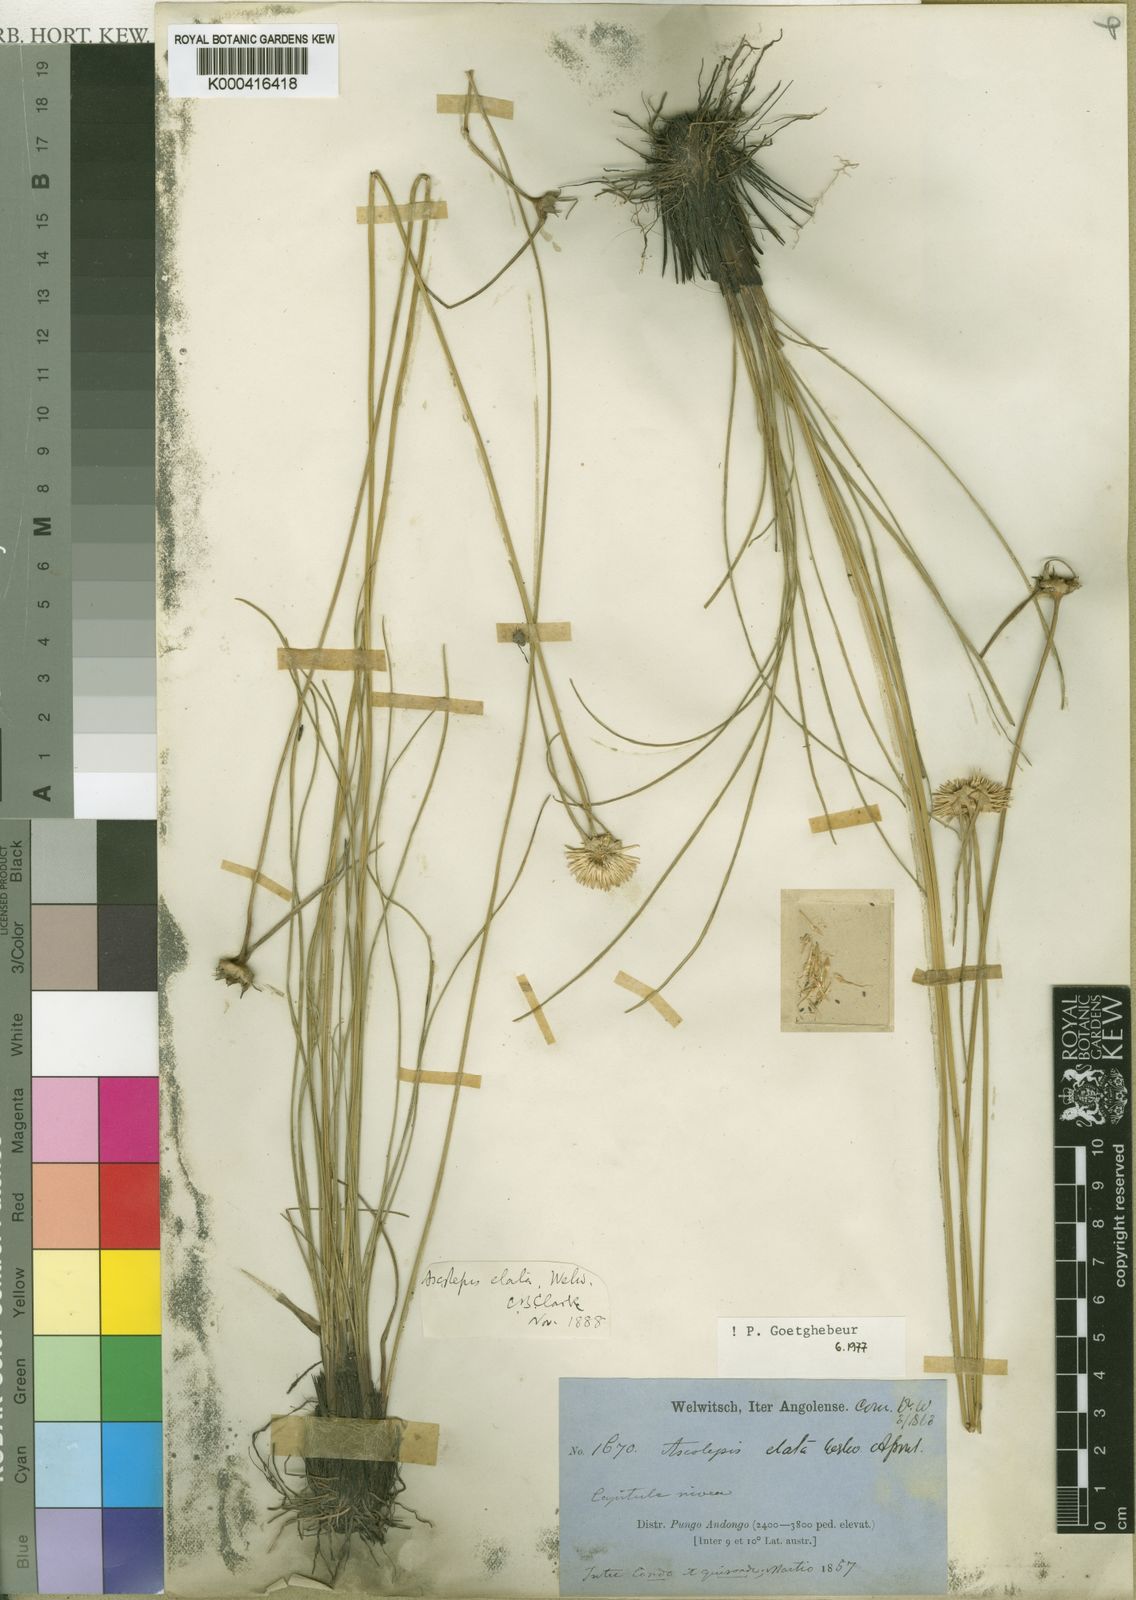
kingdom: Plantae
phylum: Tracheophyta
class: Liliopsida
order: Poales
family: Cyperaceae
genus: Cyperus
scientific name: Cyperus proteus
